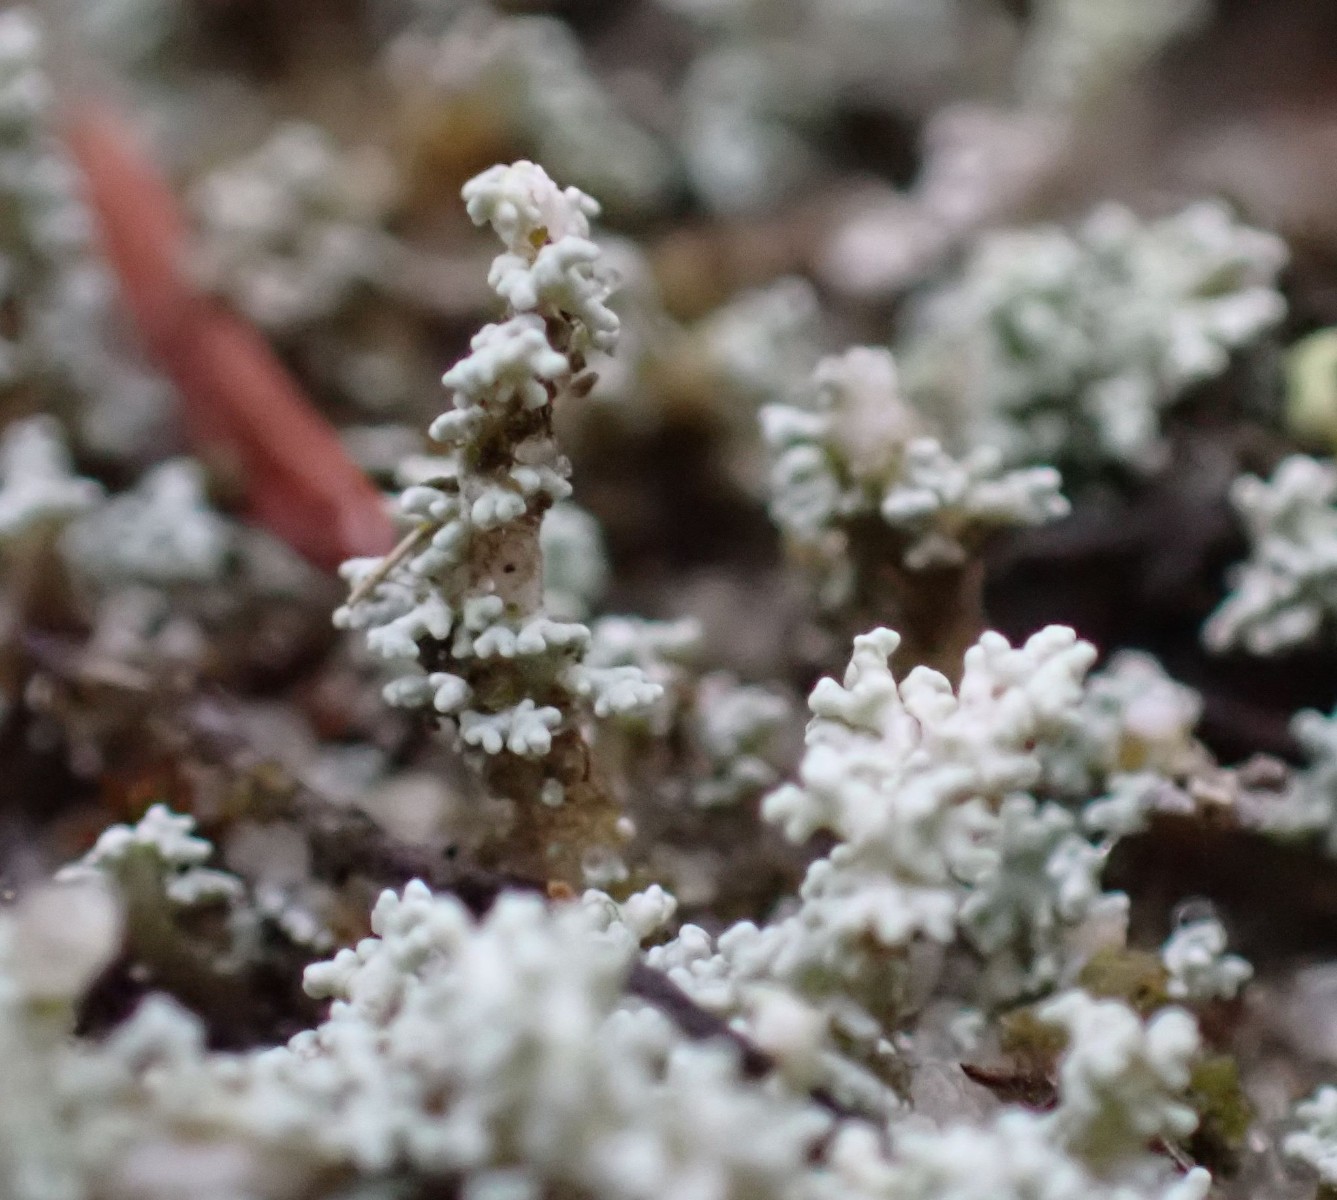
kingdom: Fungi
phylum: Ascomycota
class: Lecanoromycetes
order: Lecanorales
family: Stereocaulaceae
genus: Stereocaulon
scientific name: Stereocaulon condensatum
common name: lav korallav
